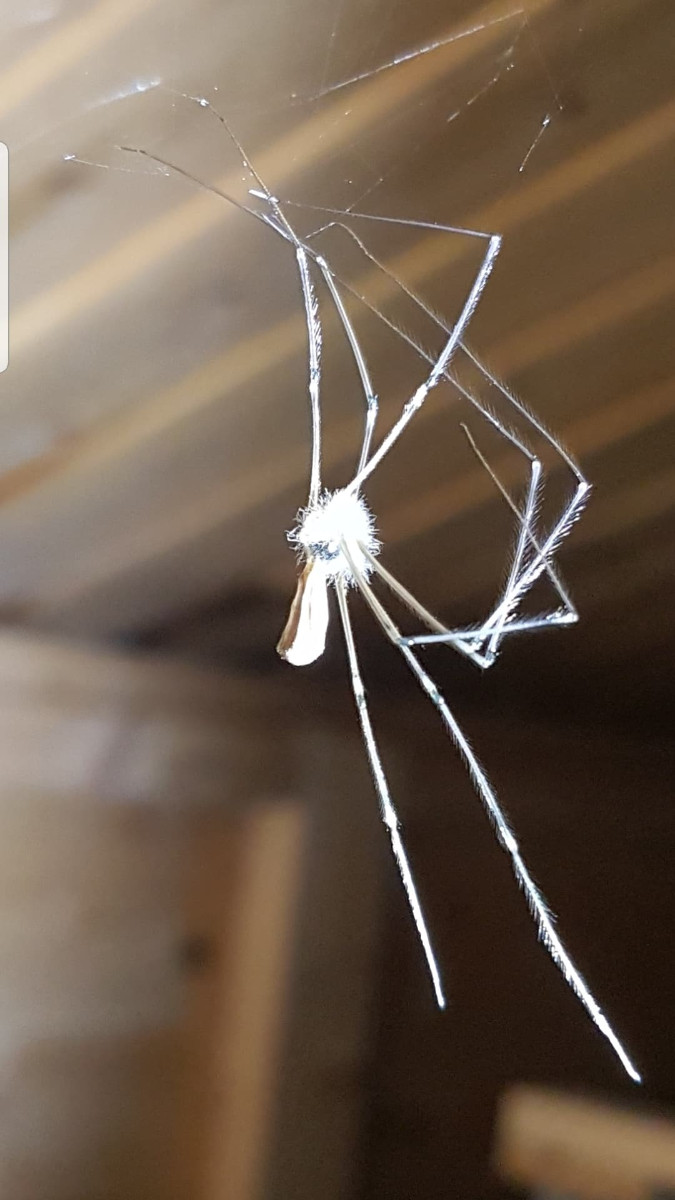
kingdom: Fungi
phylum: Ascomycota
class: Sordariomycetes
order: Hypocreales
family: Cordycipitaceae
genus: Lecanicillium
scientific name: Lecanicillium tenuipes
